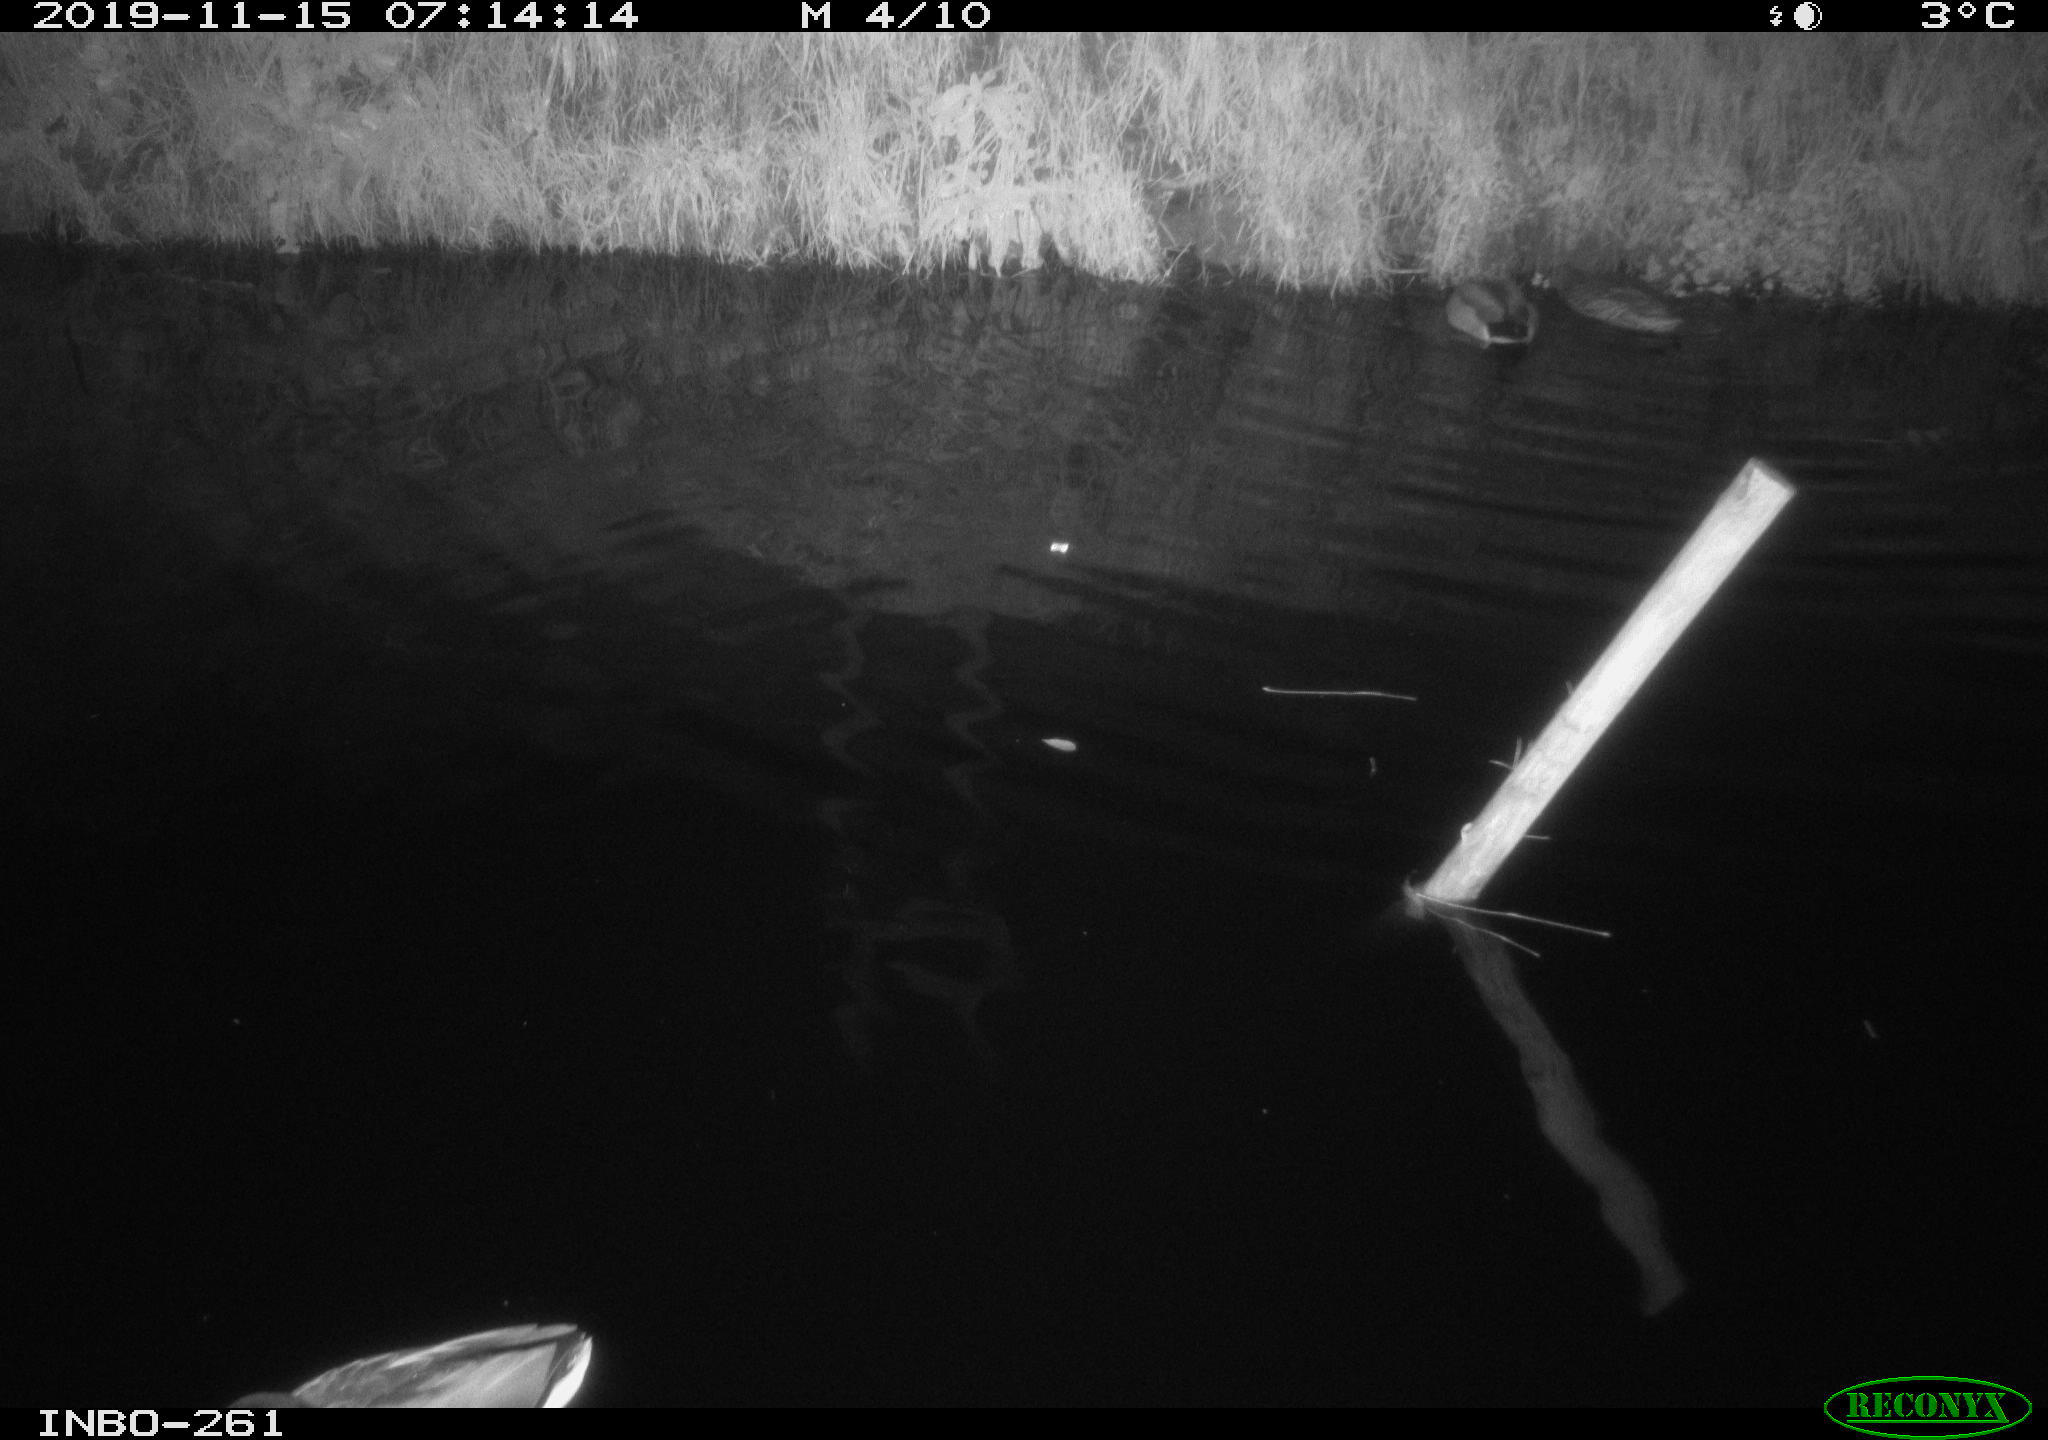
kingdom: Animalia
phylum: Chordata
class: Aves
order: Anseriformes
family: Anatidae
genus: Anas
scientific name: Anas platyrhynchos
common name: Mallard
